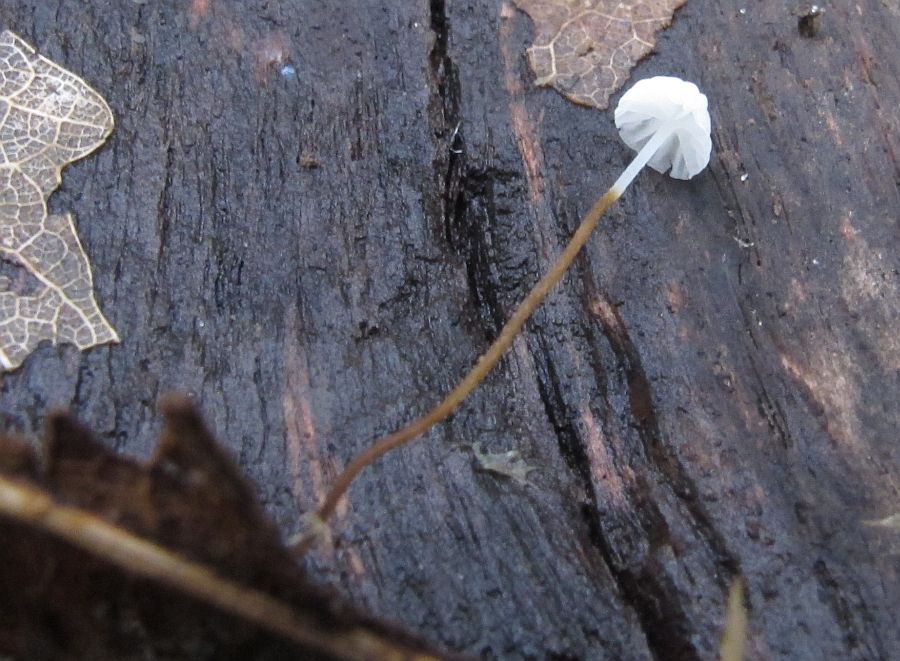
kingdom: Fungi
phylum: Basidiomycota
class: Agaricomycetes
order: Agaricales
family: Physalacriaceae
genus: Rhizomarasmius
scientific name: Rhizomarasmius setosus
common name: bøgeblads-bruskhat
